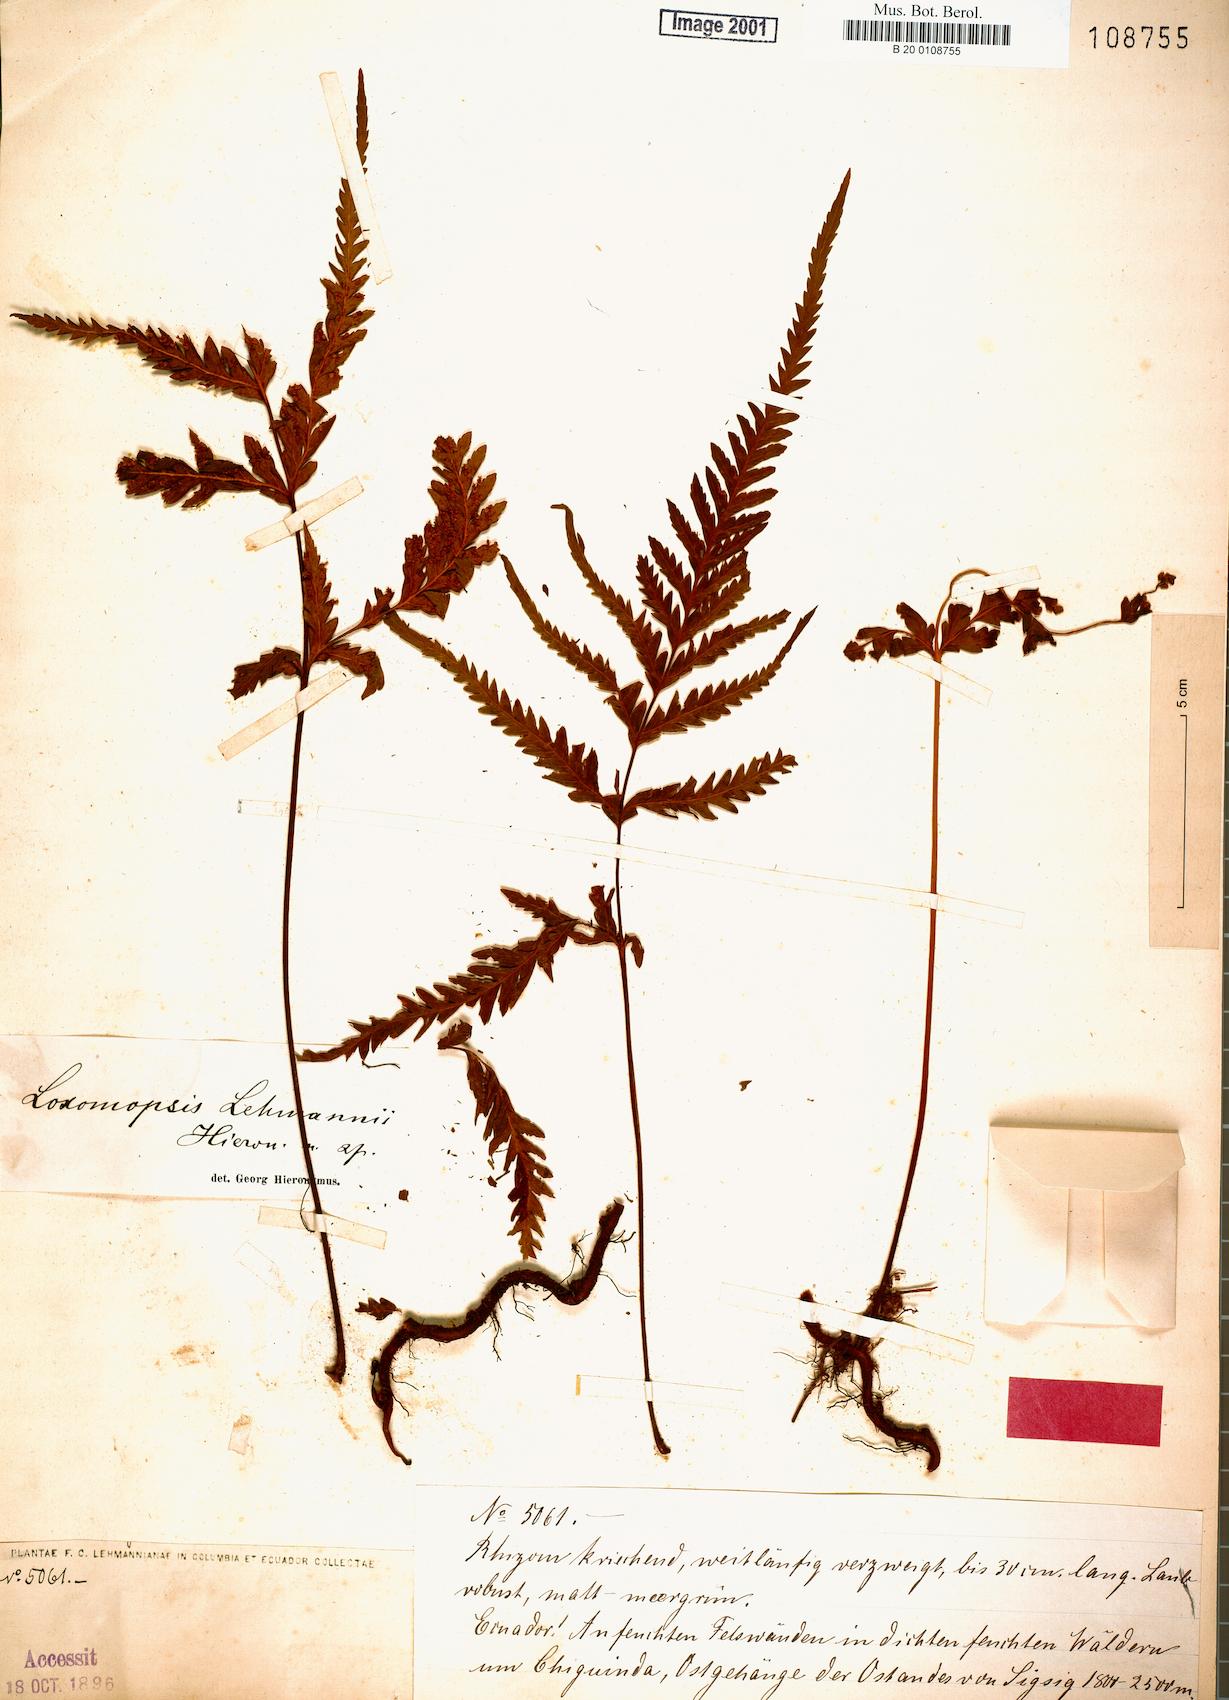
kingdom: Plantae
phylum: Tracheophyta
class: Polypodiopsida
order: Cyatheales
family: Loxsomataceae
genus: Loxsomopsis
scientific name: Loxsomopsis pearcei
